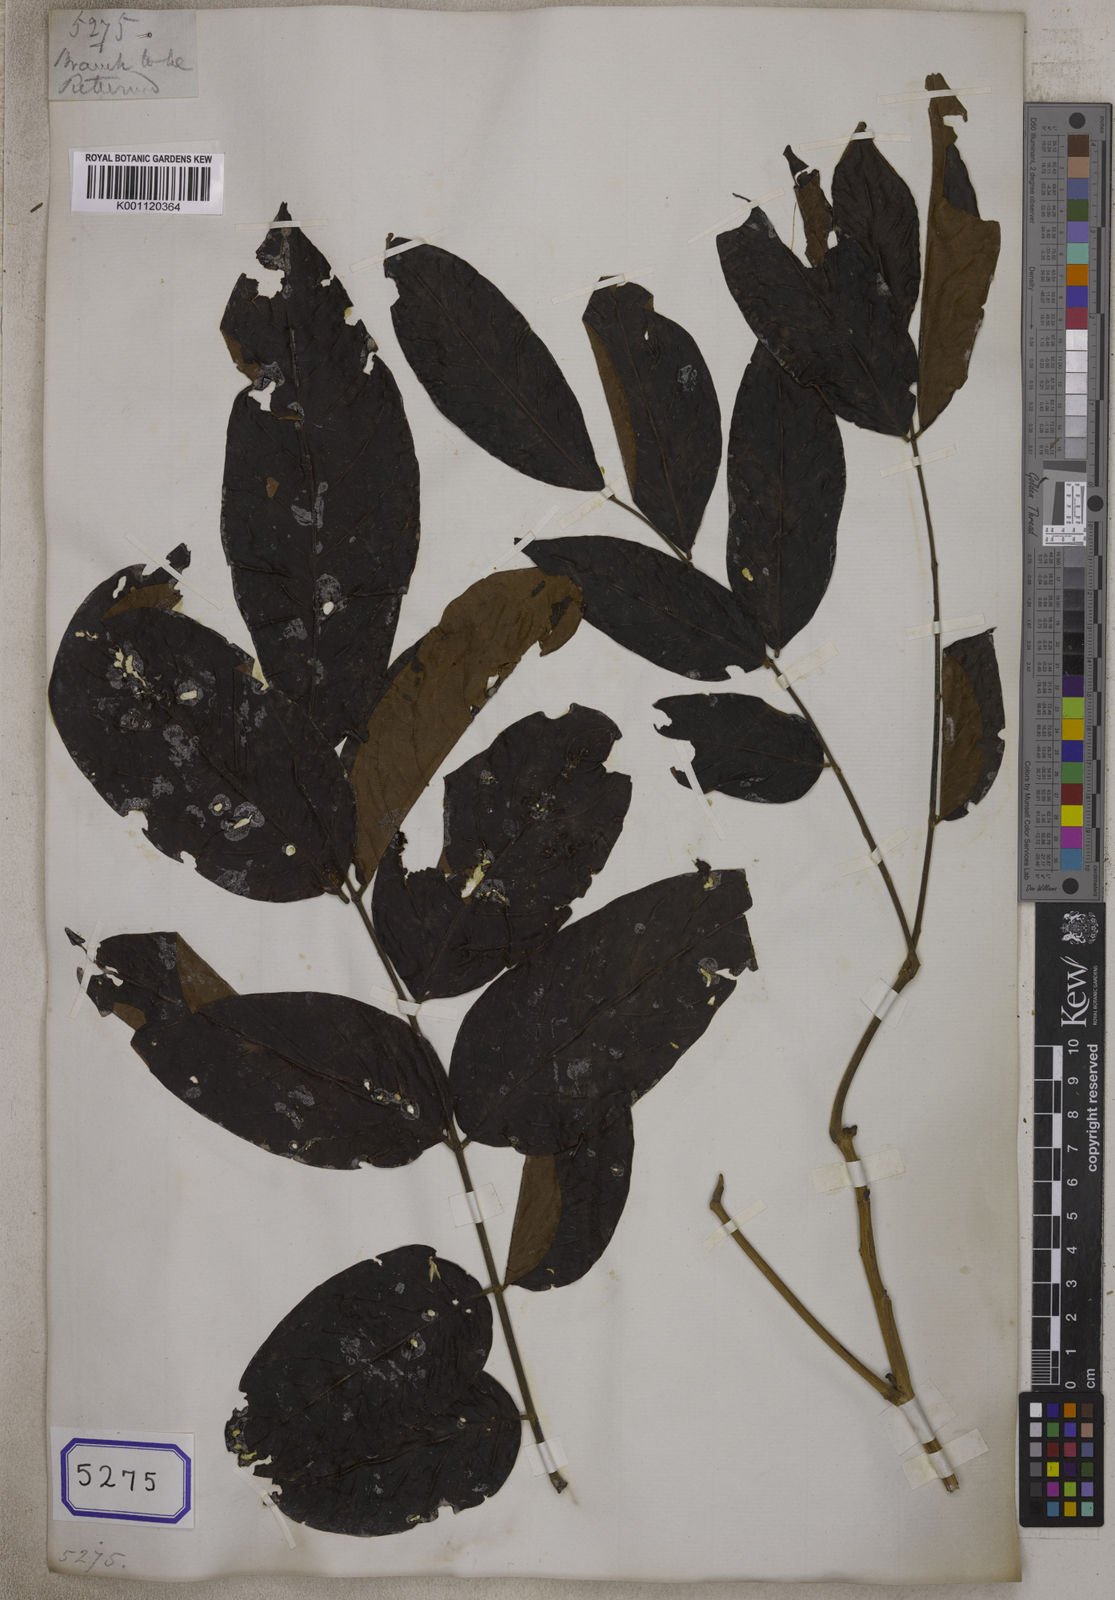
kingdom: Plantae
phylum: Tracheophyta
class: Magnoliopsida
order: Fabales
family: Fabaceae
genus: Inga
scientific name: Inga mollis
